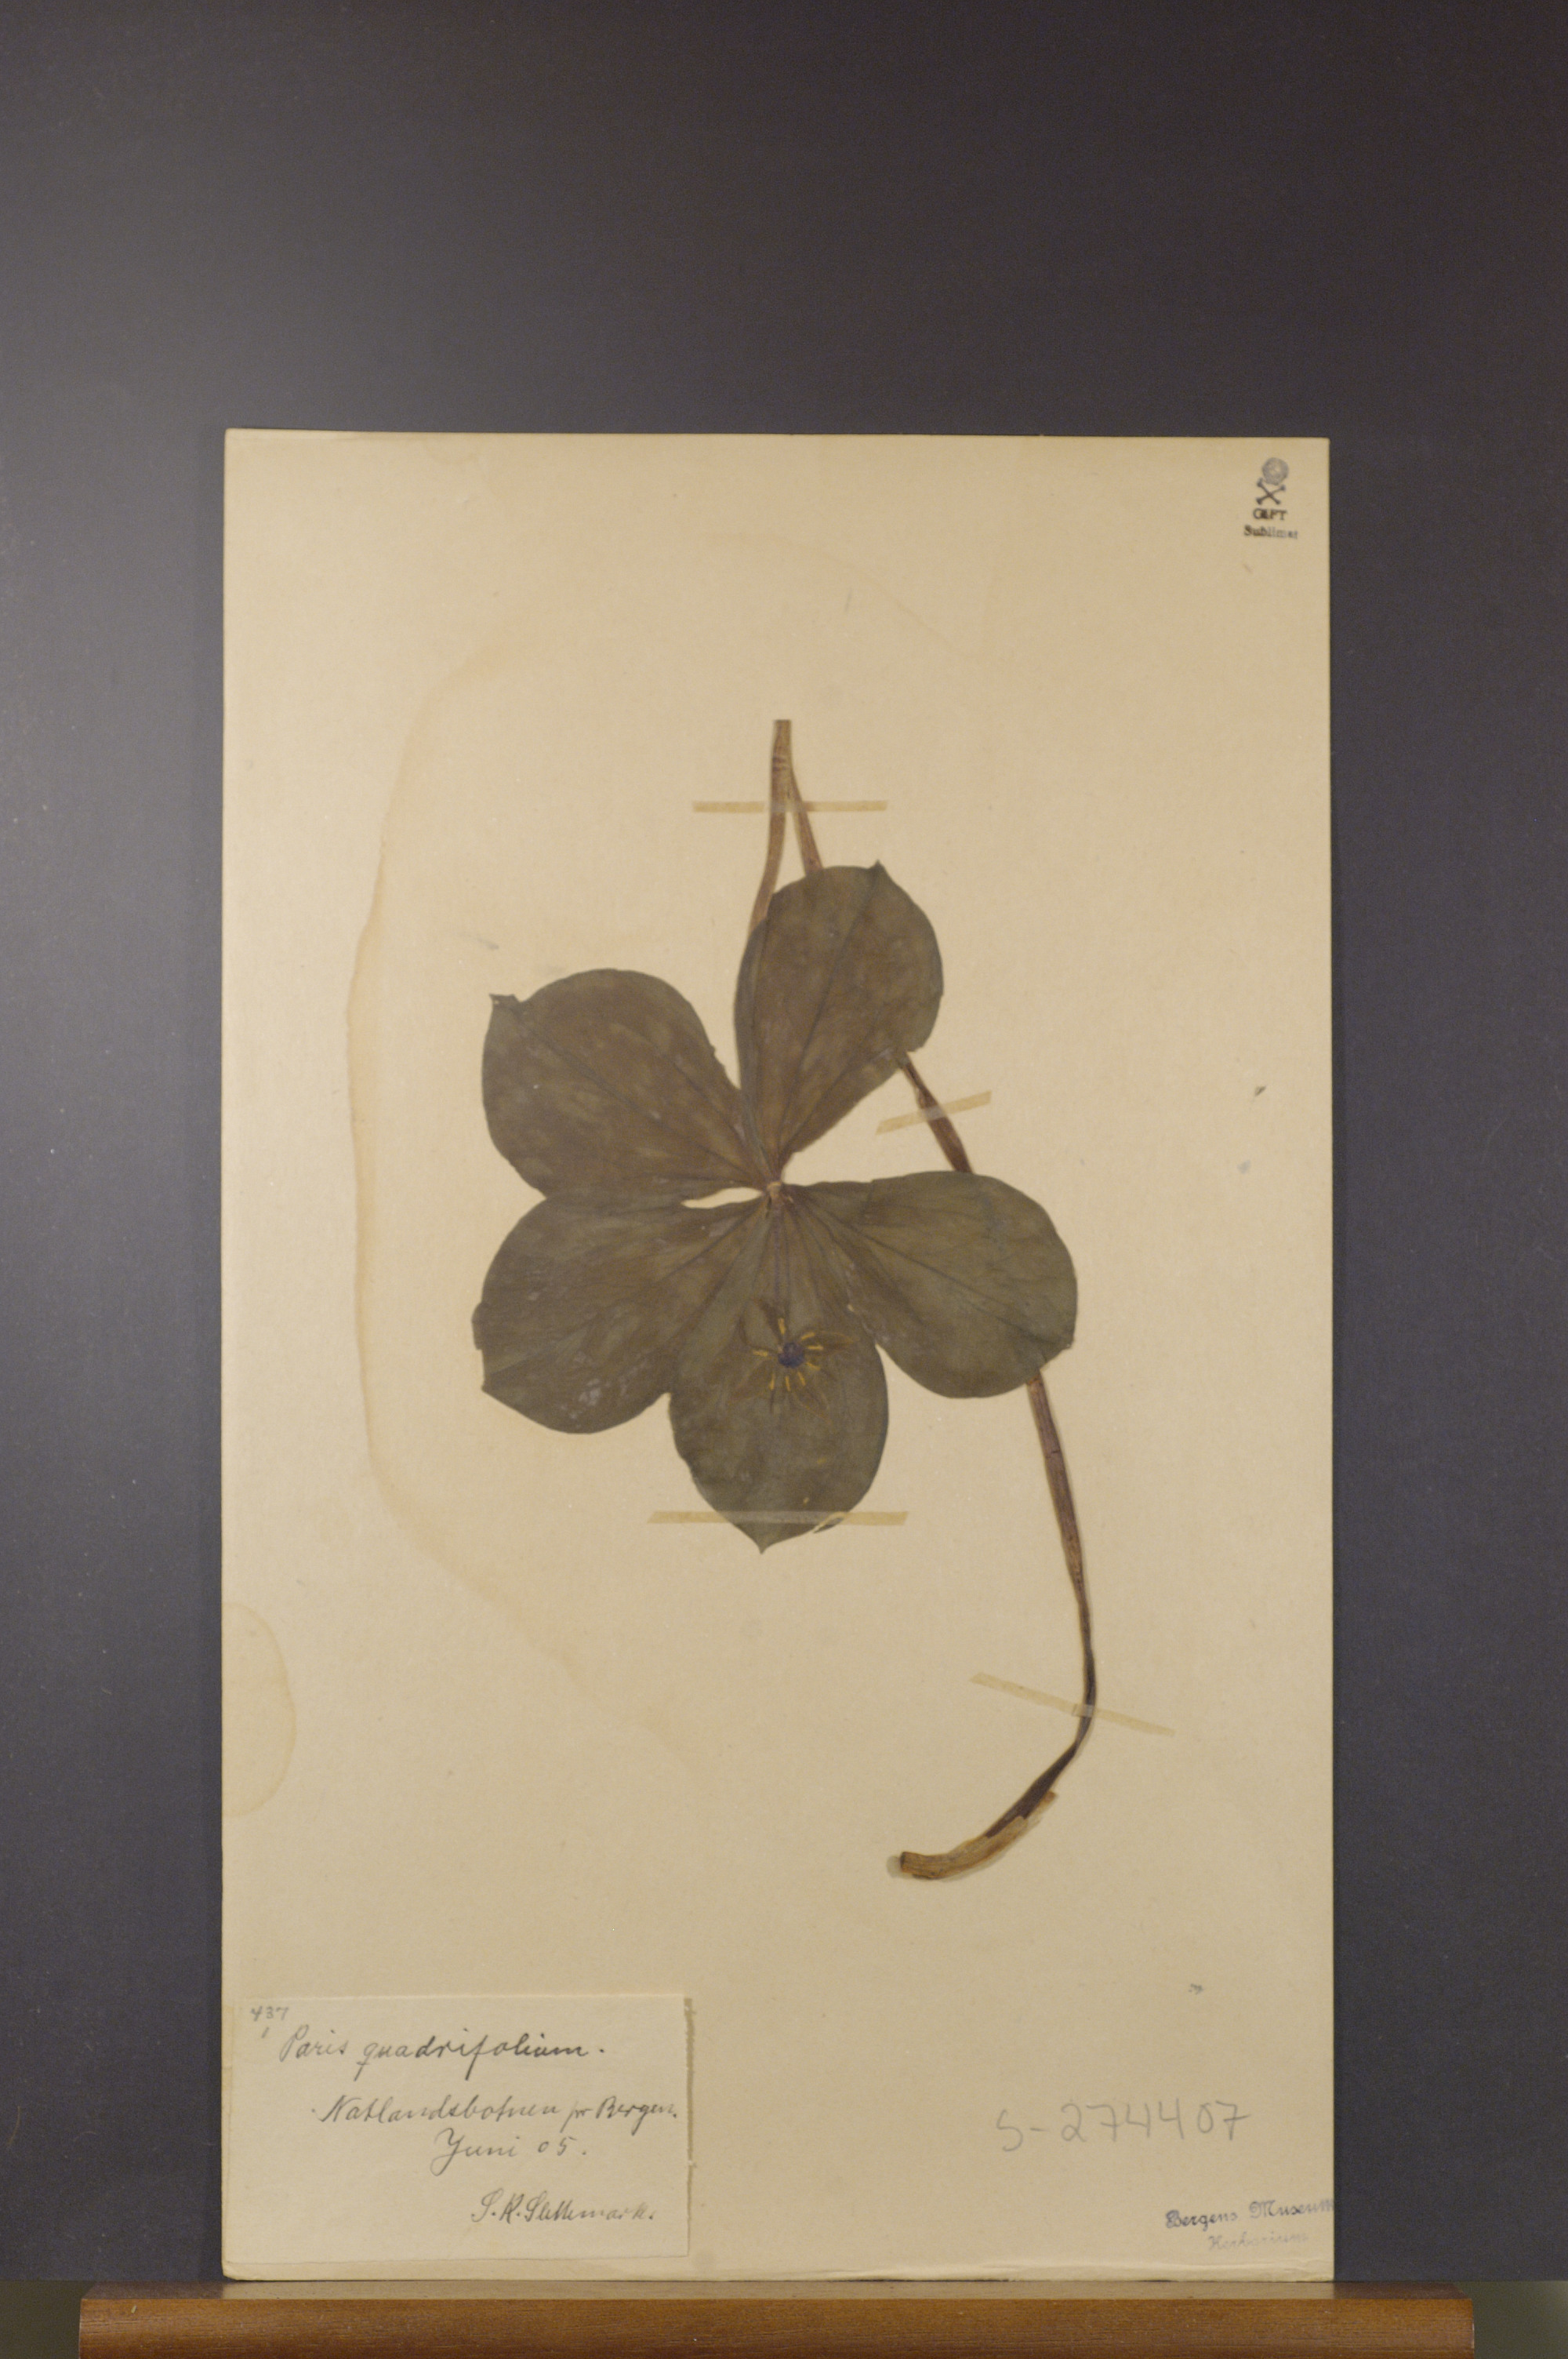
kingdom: Plantae
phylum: Tracheophyta
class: Liliopsida
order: Liliales
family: Melanthiaceae
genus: Paris
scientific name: Paris quadrifolia
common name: Herb-paris
